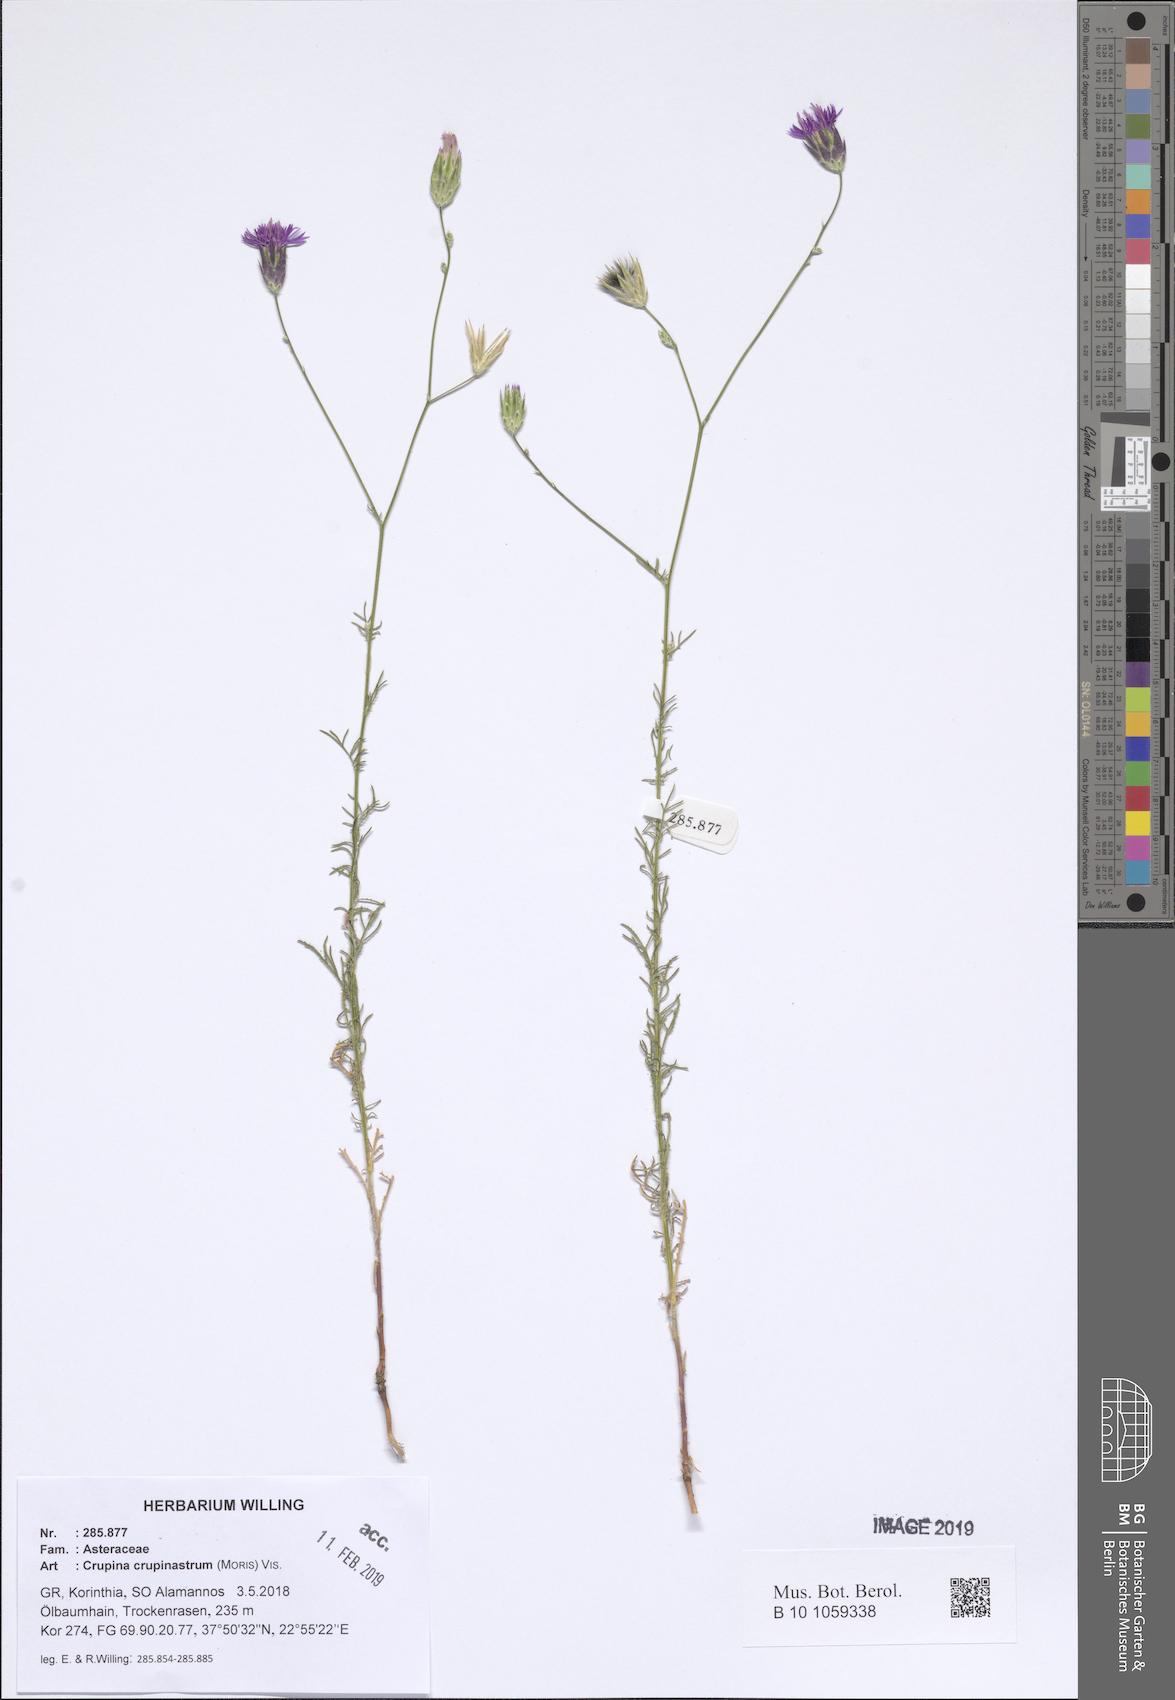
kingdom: Plantae
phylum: Tracheophyta
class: Magnoliopsida
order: Asterales
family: Asteraceae
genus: Crupina
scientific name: Crupina crupinastrum
